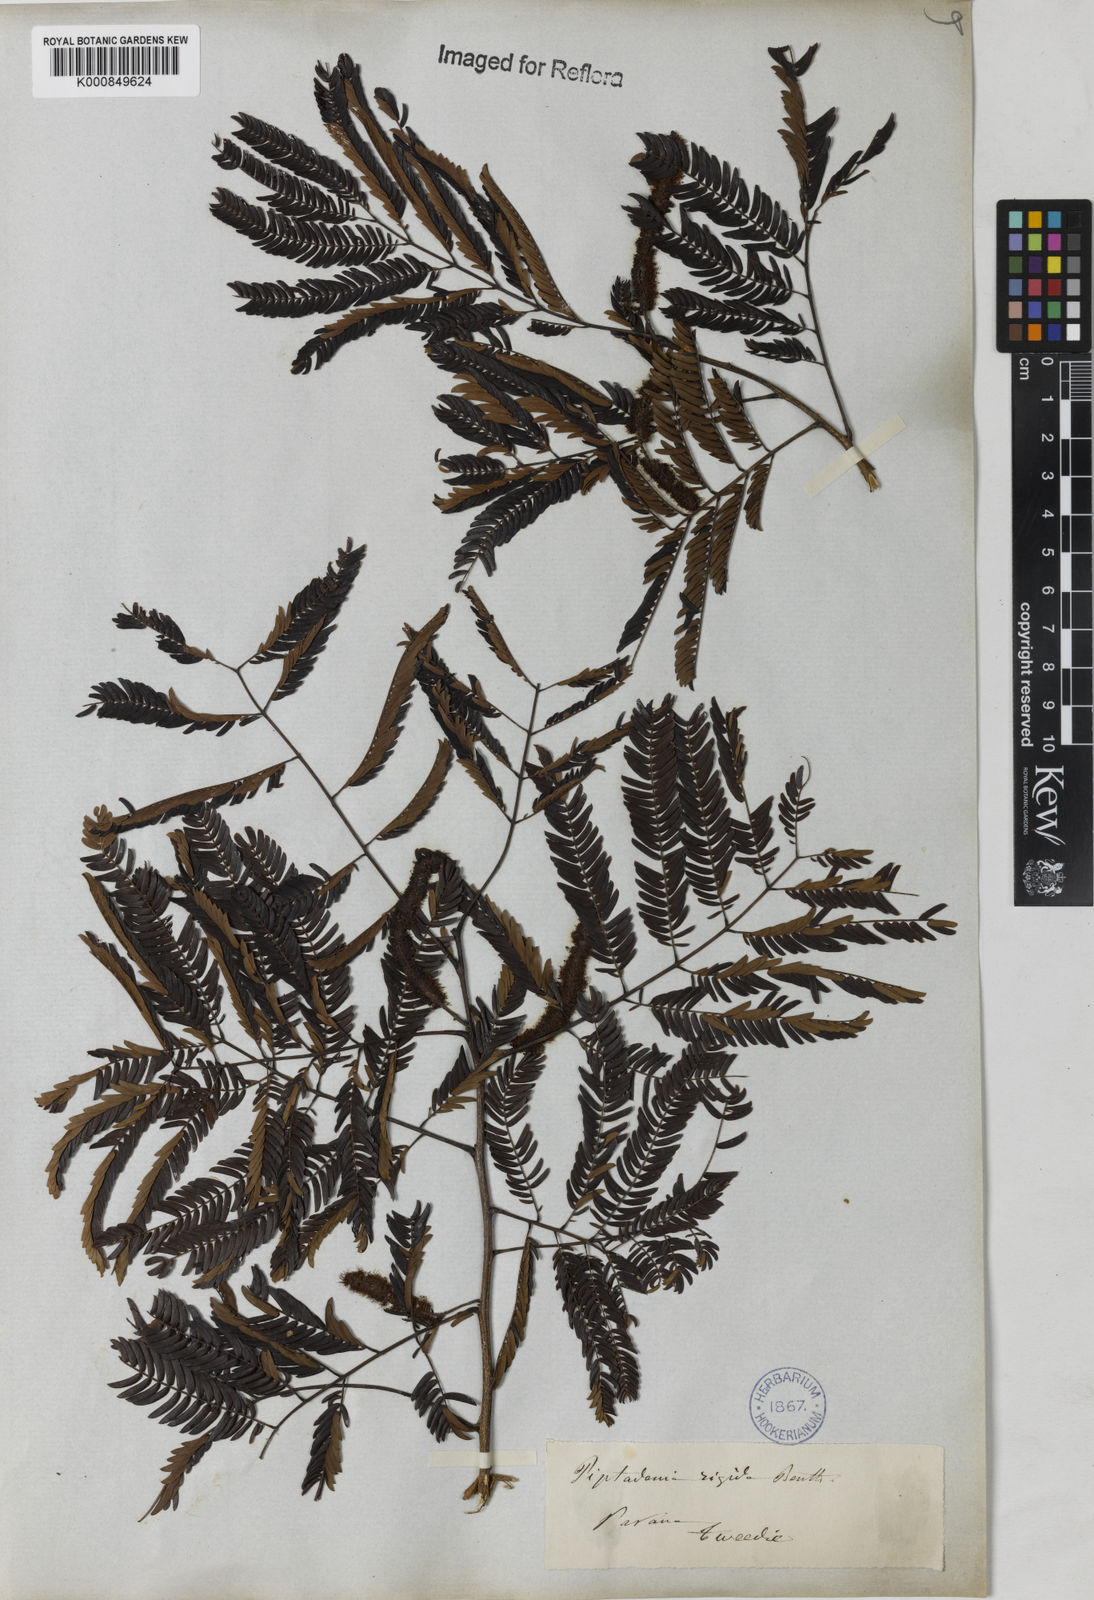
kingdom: Plantae
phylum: Tracheophyta
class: Magnoliopsida
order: Fabales
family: Fabaceae
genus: Parapiptadenia
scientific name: Parapiptadenia rigida
